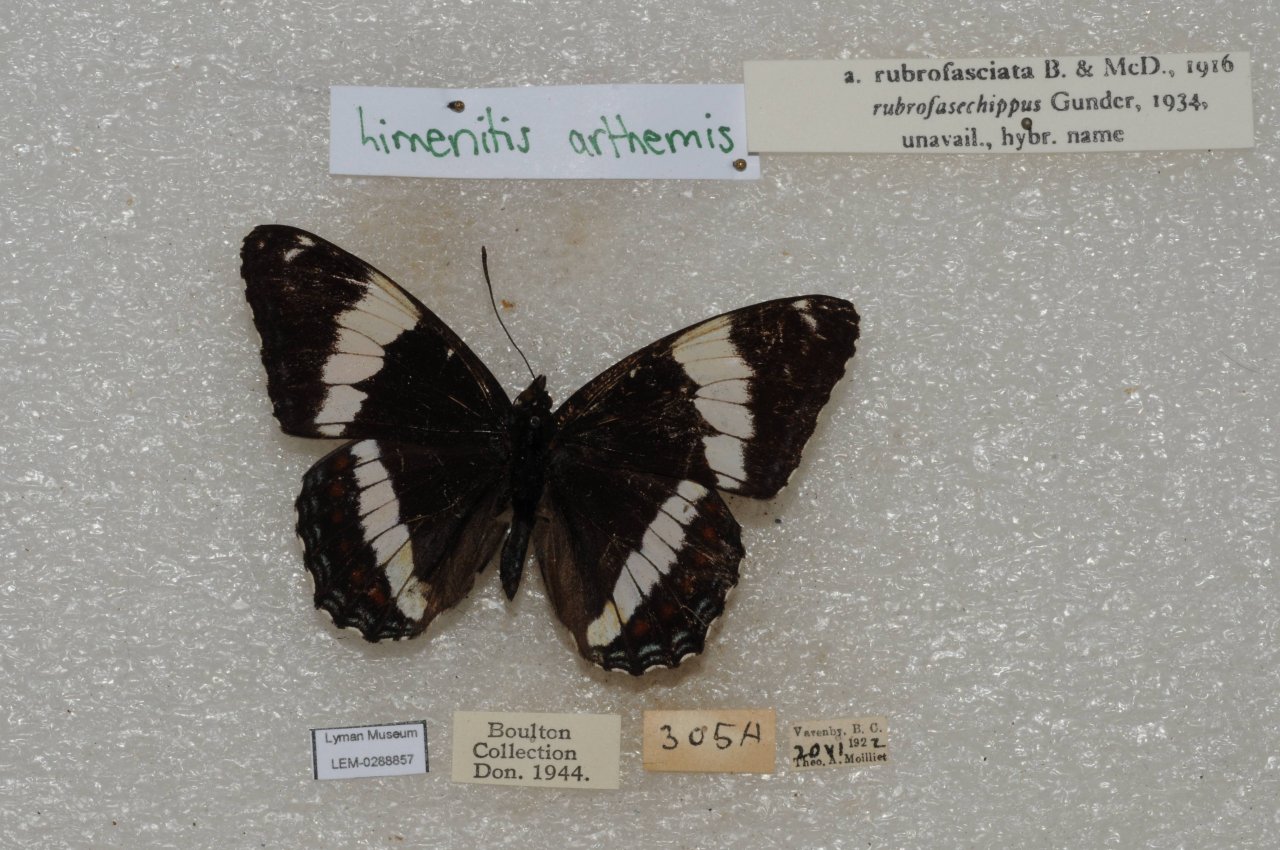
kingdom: Animalia
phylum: Arthropoda
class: Insecta
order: Lepidoptera
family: Nymphalidae
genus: Limenitis
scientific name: Limenitis arthemis
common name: Red-spotted Admiral
